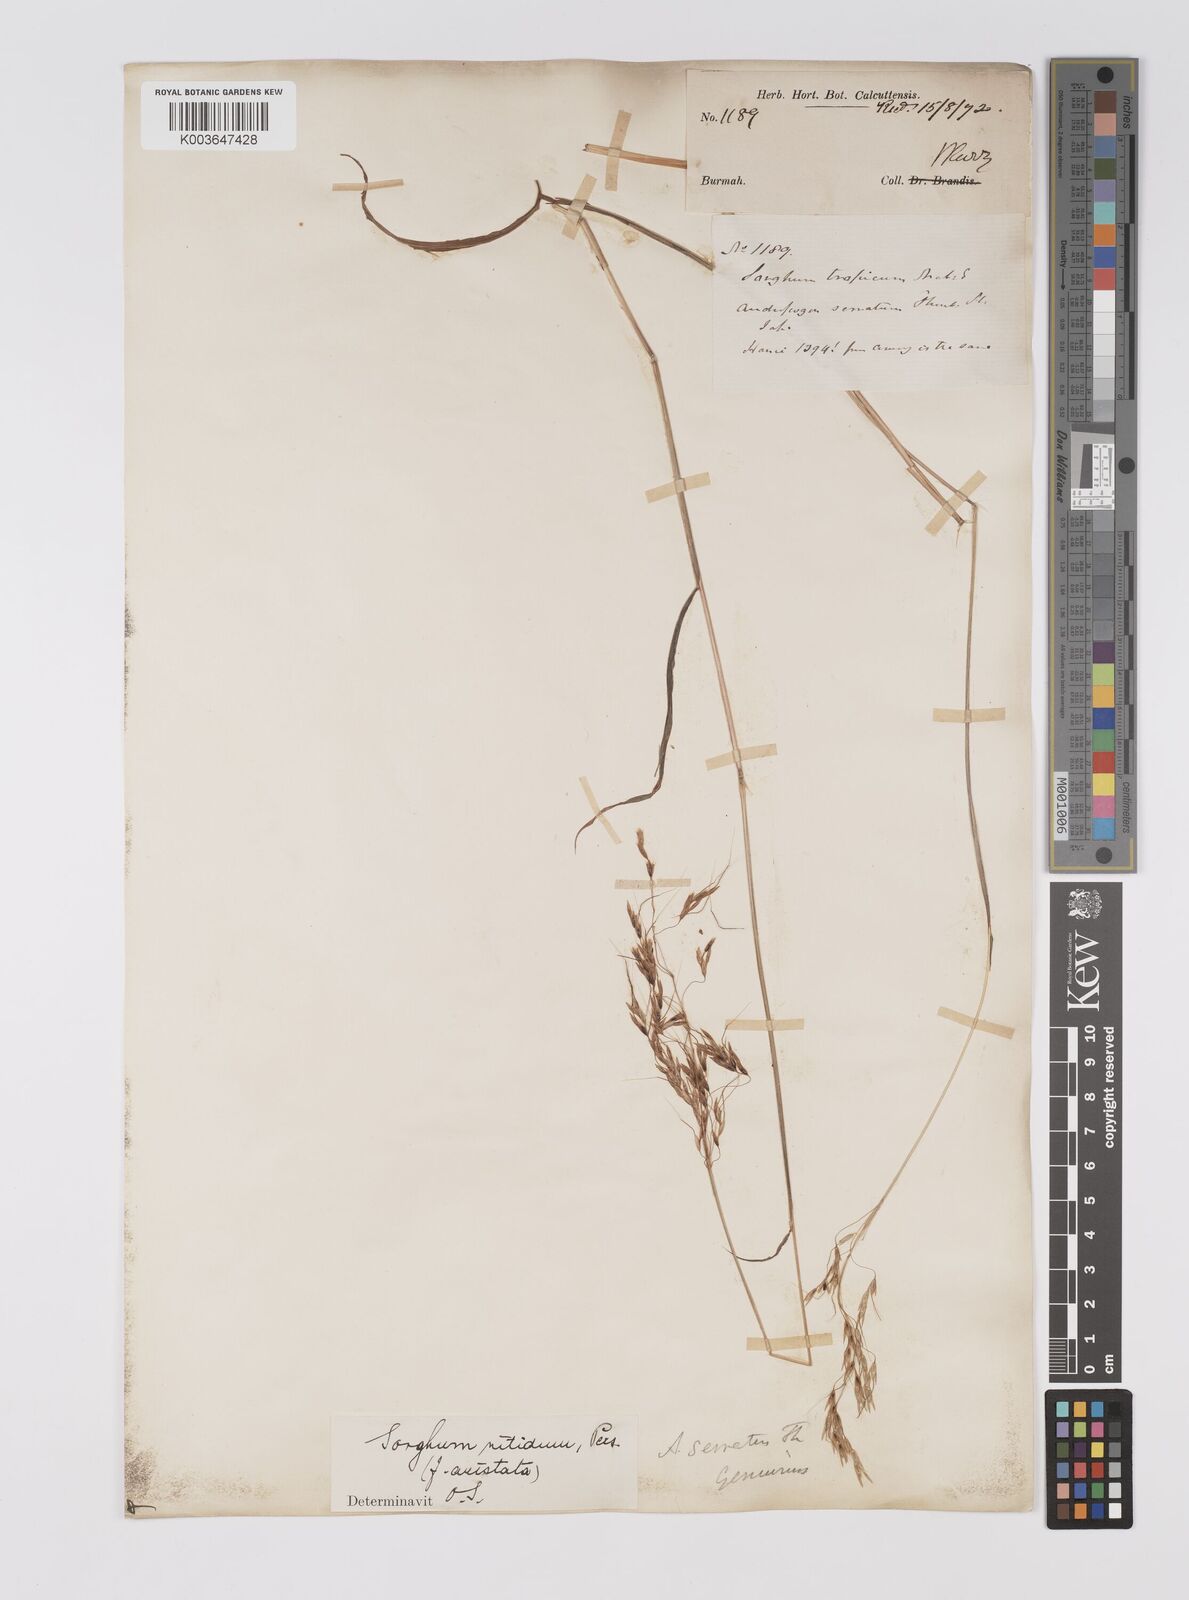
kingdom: Plantae
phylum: Tracheophyta
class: Liliopsida
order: Poales
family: Poaceae
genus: Sorghum
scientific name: Sorghum nitidum
